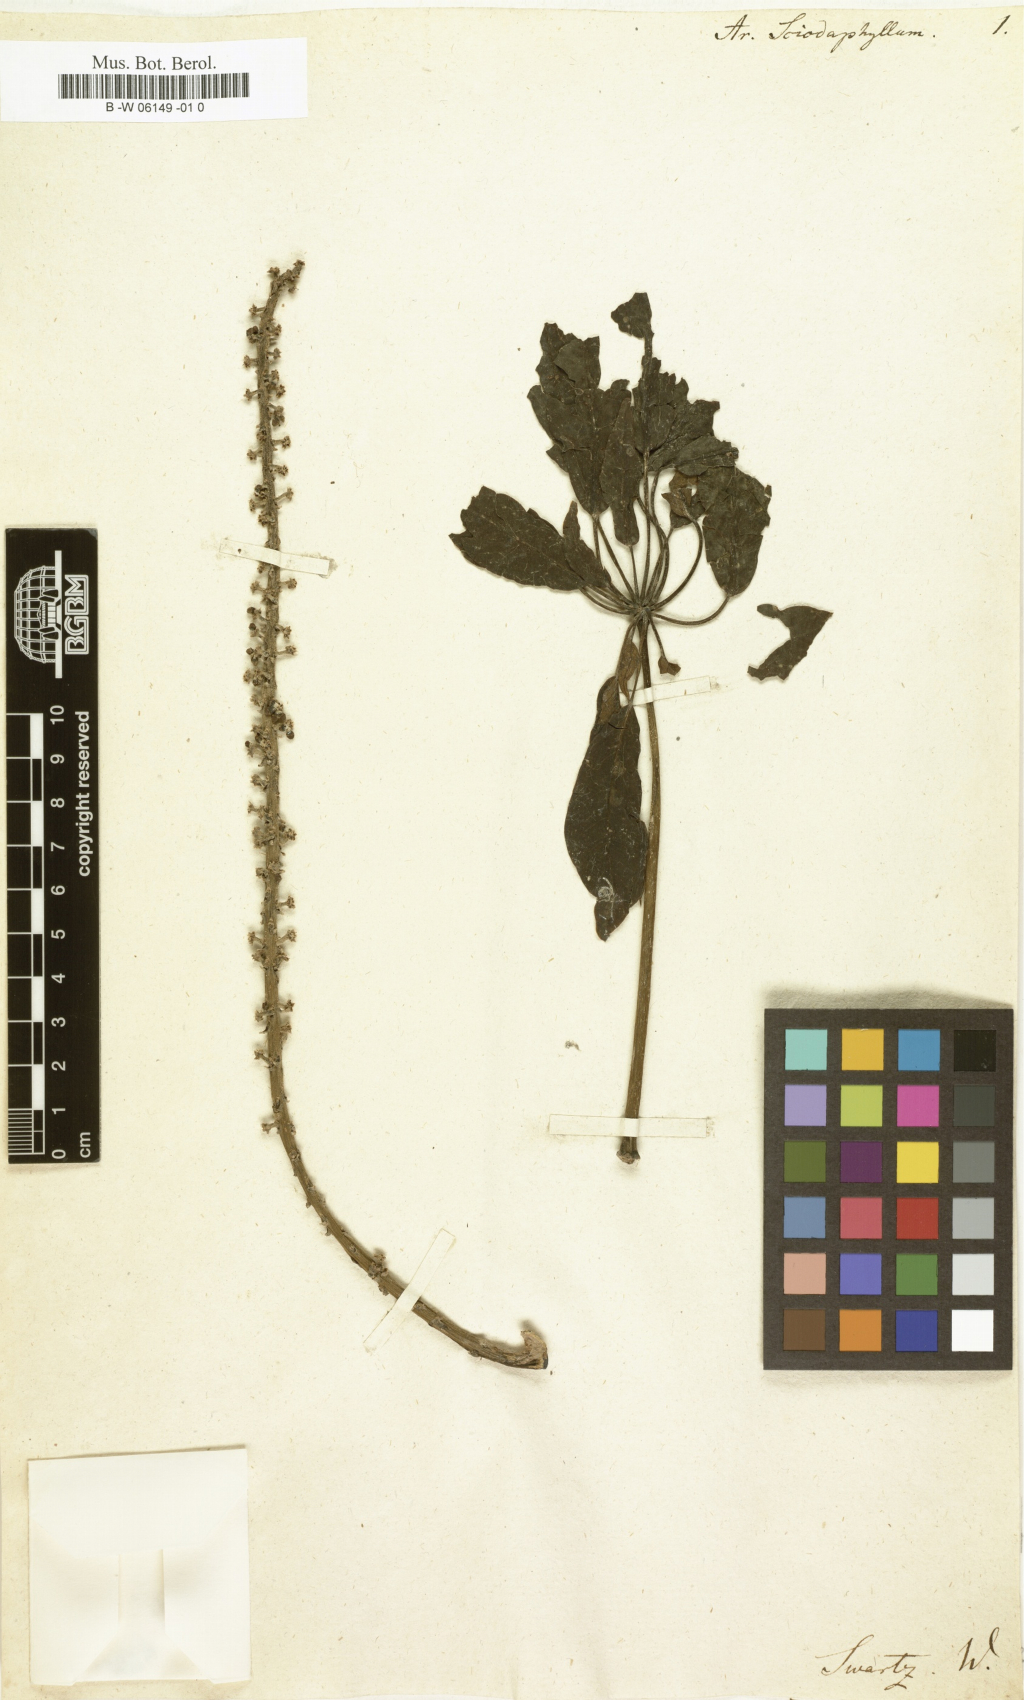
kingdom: Plantae
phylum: Tracheophyta
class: Magnoliopsida
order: Apiales
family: Araliaceae
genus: Sciodaphyllum
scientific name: Sciodaphyllum brownei
